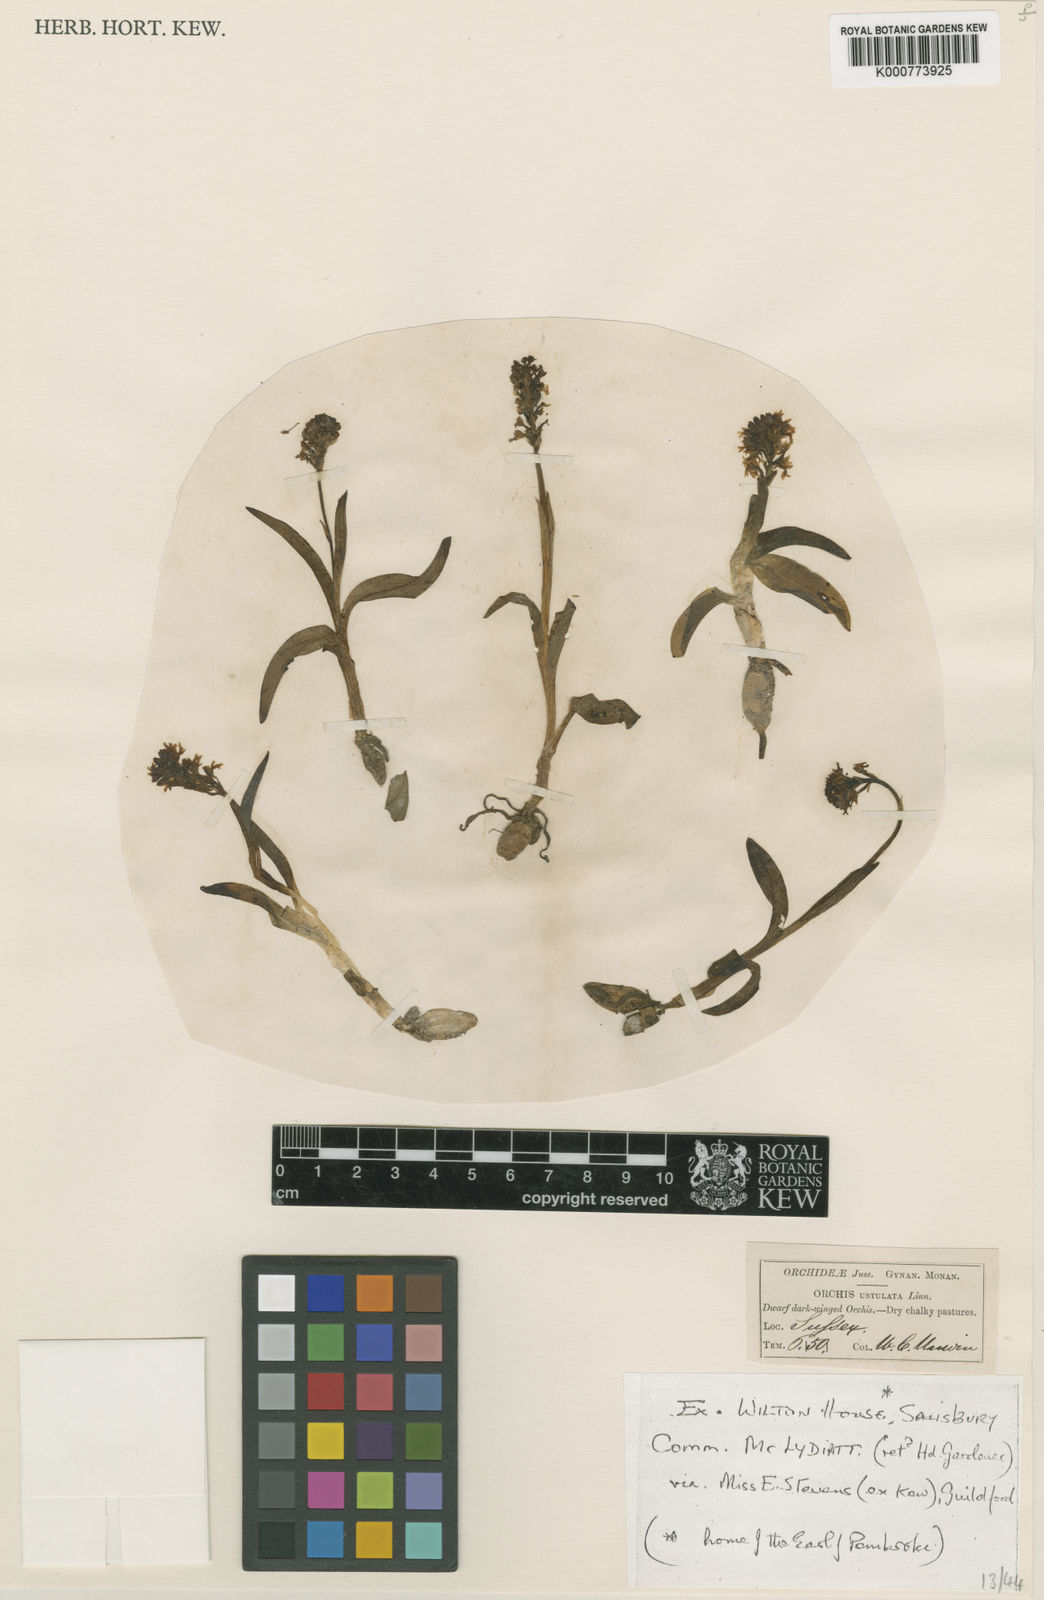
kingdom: Plantae
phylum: Tracheophyta
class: Liliopsida
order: Asparagales
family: Orchidaceae
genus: Neotinea
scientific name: Neotinea ustulata
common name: Burnt orchid
